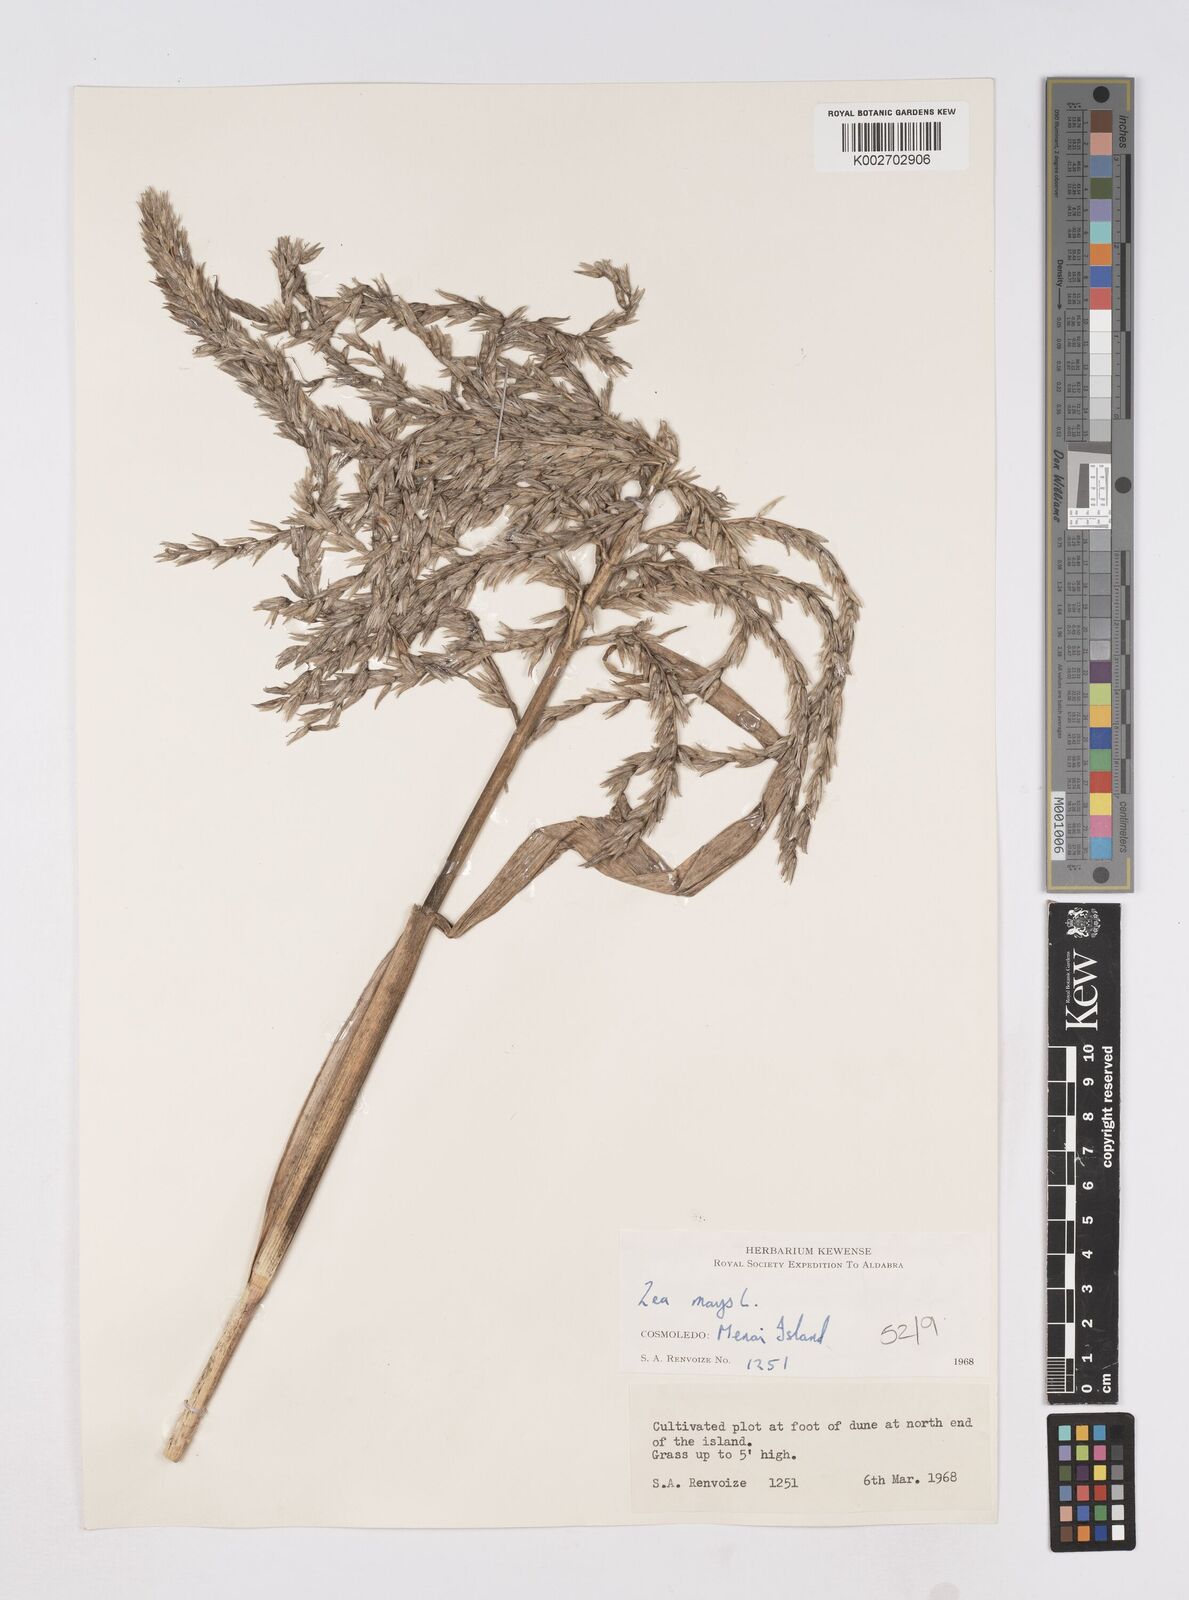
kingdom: Plantae
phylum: Tracheophyta
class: Liliopsida
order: Poales
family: Poaceae
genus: Zea
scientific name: Zea mays
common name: Maize
